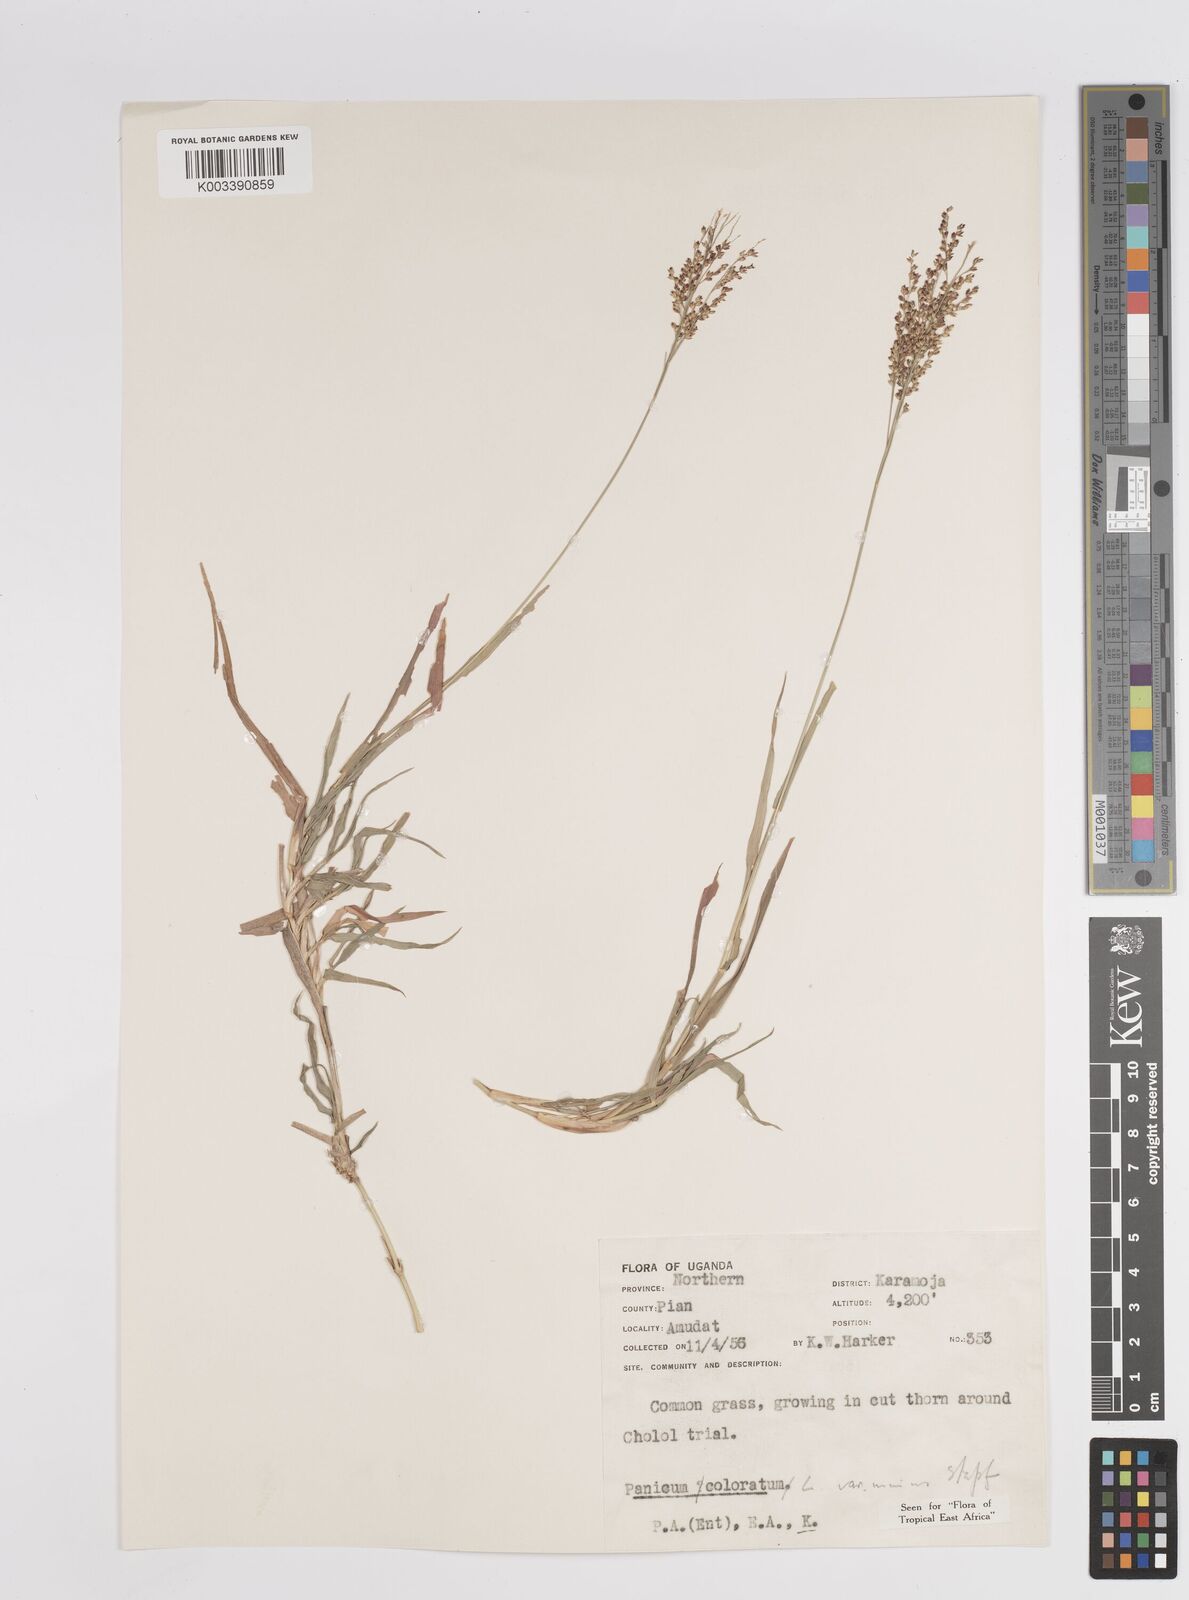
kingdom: Plantae
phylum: Tracheophyta
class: Liliopsida
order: Poales
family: Poaceae
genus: Panicum
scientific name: Panicum coloratum
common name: Kleingrass
